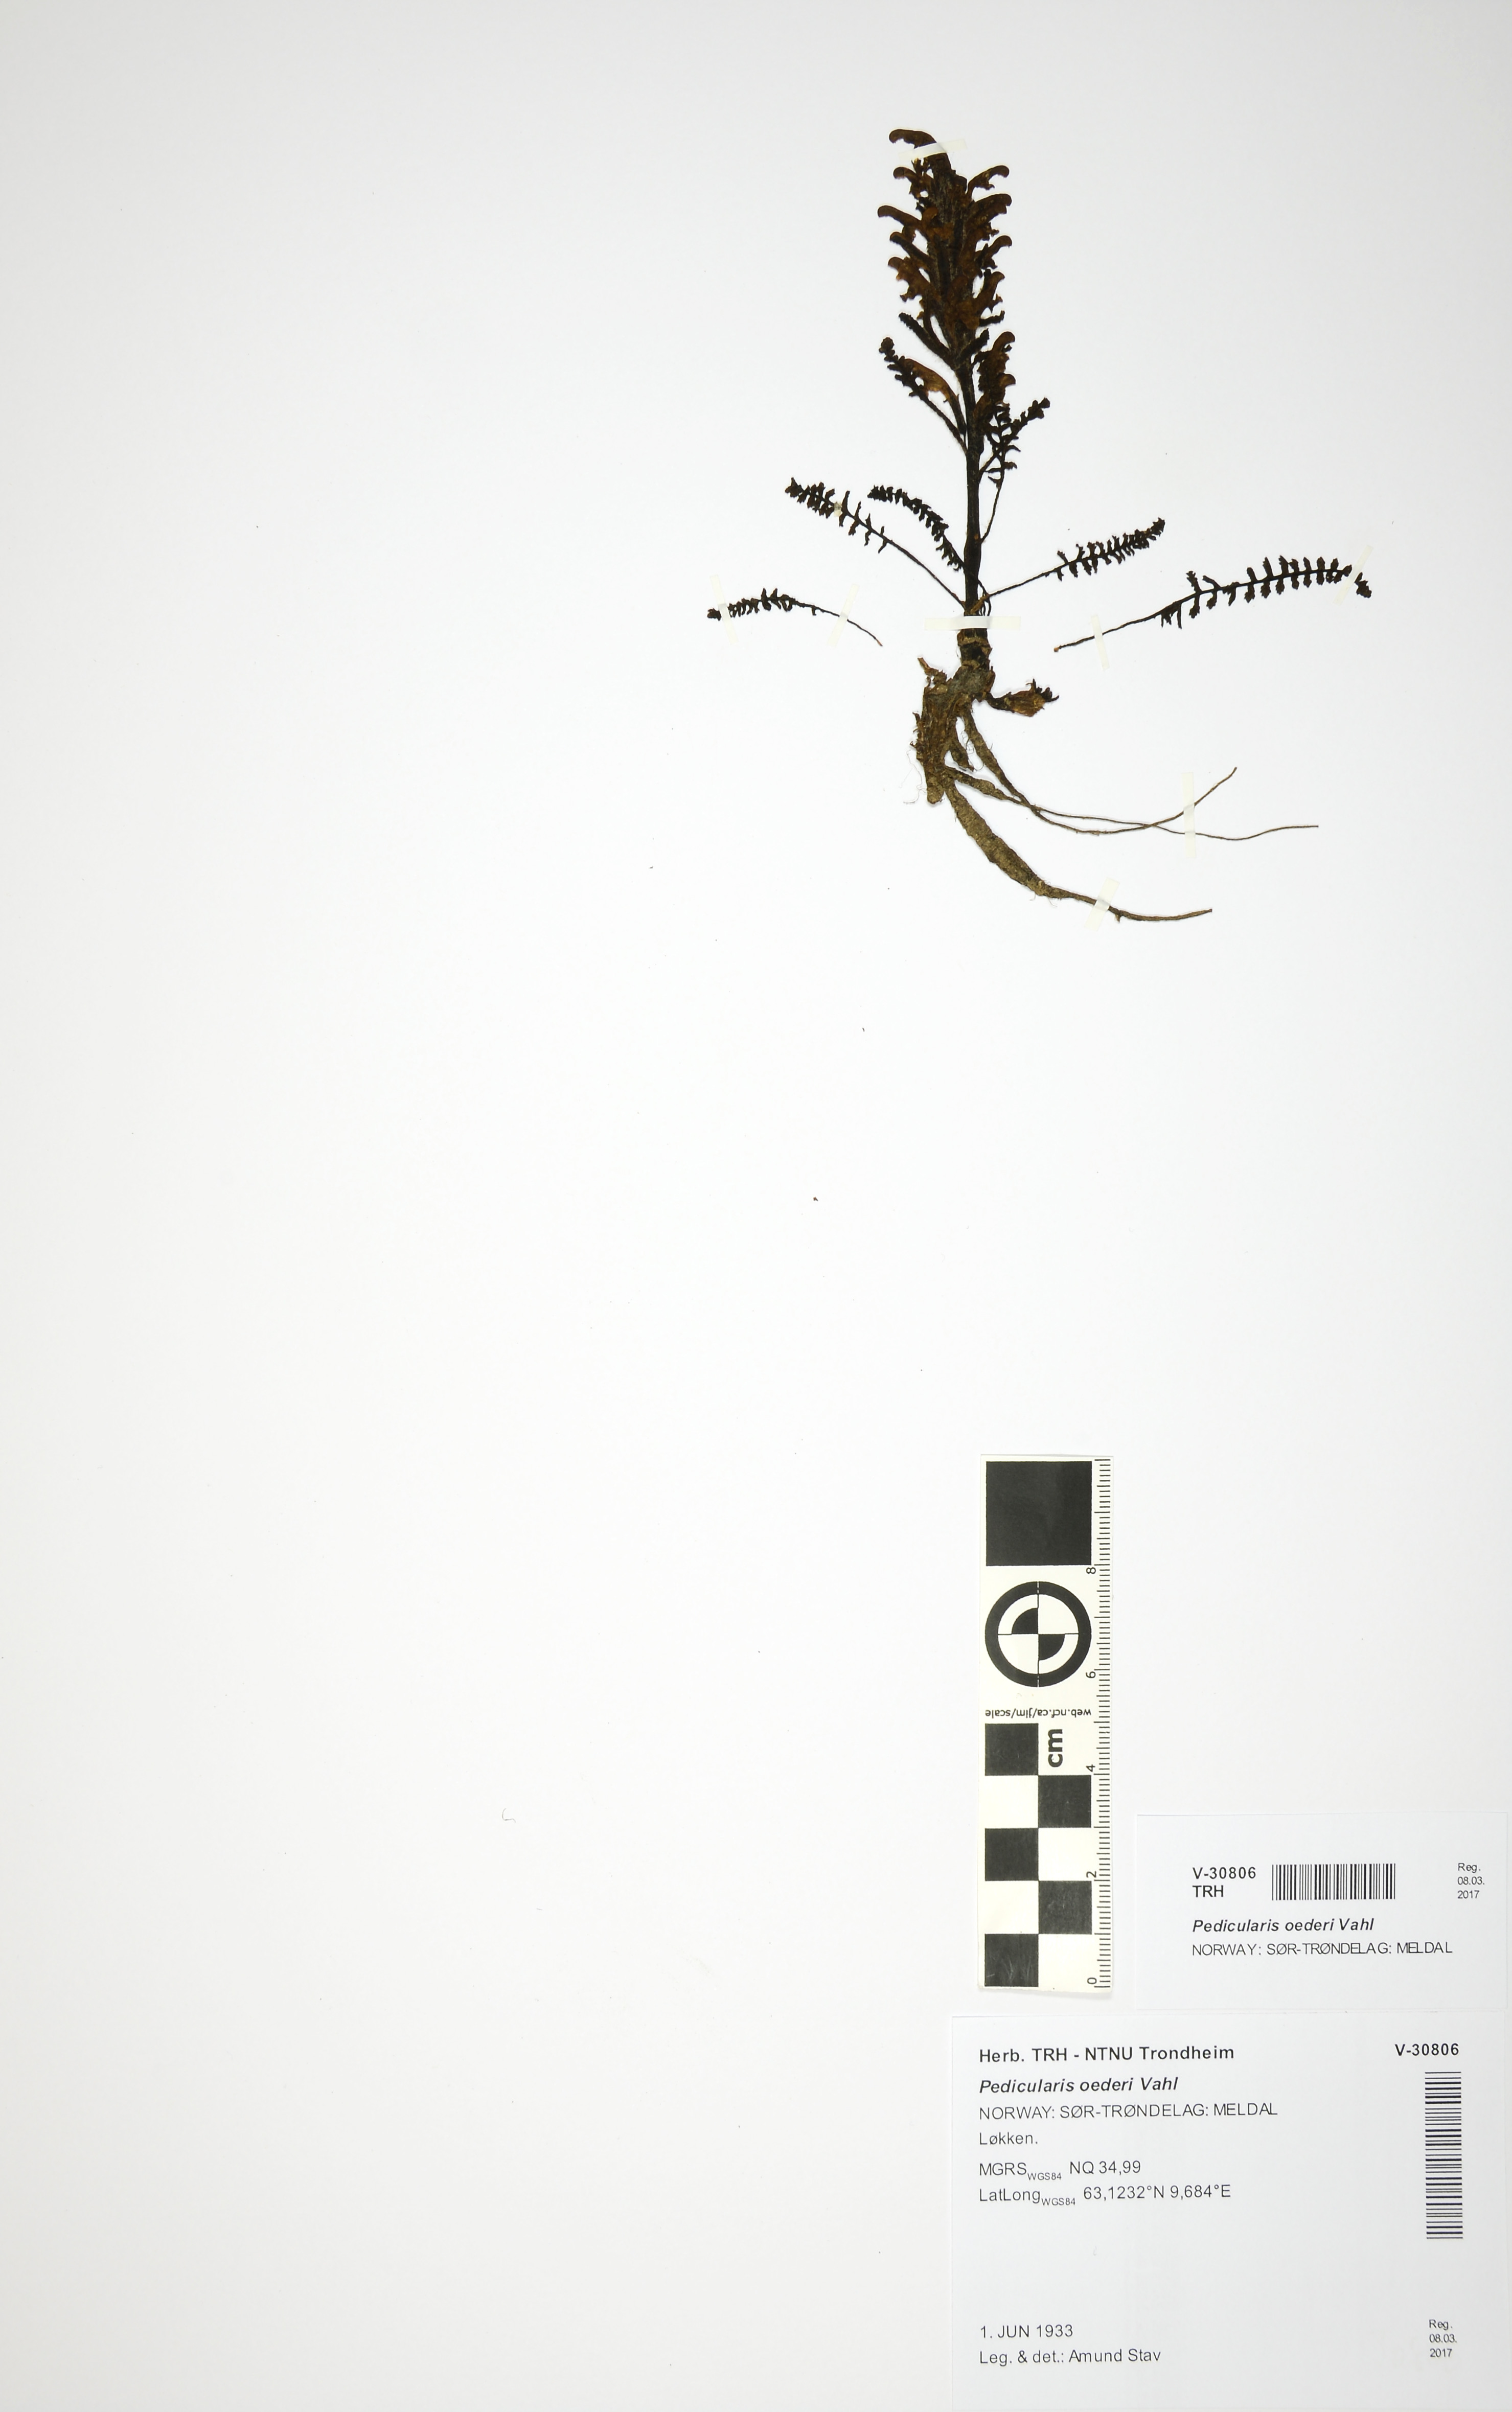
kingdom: Plantae
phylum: Tracheophyta
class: Magnoliopsida
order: Lamiales
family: Orobanchaceae
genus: Pedicularis
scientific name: Pedicularis oederi
